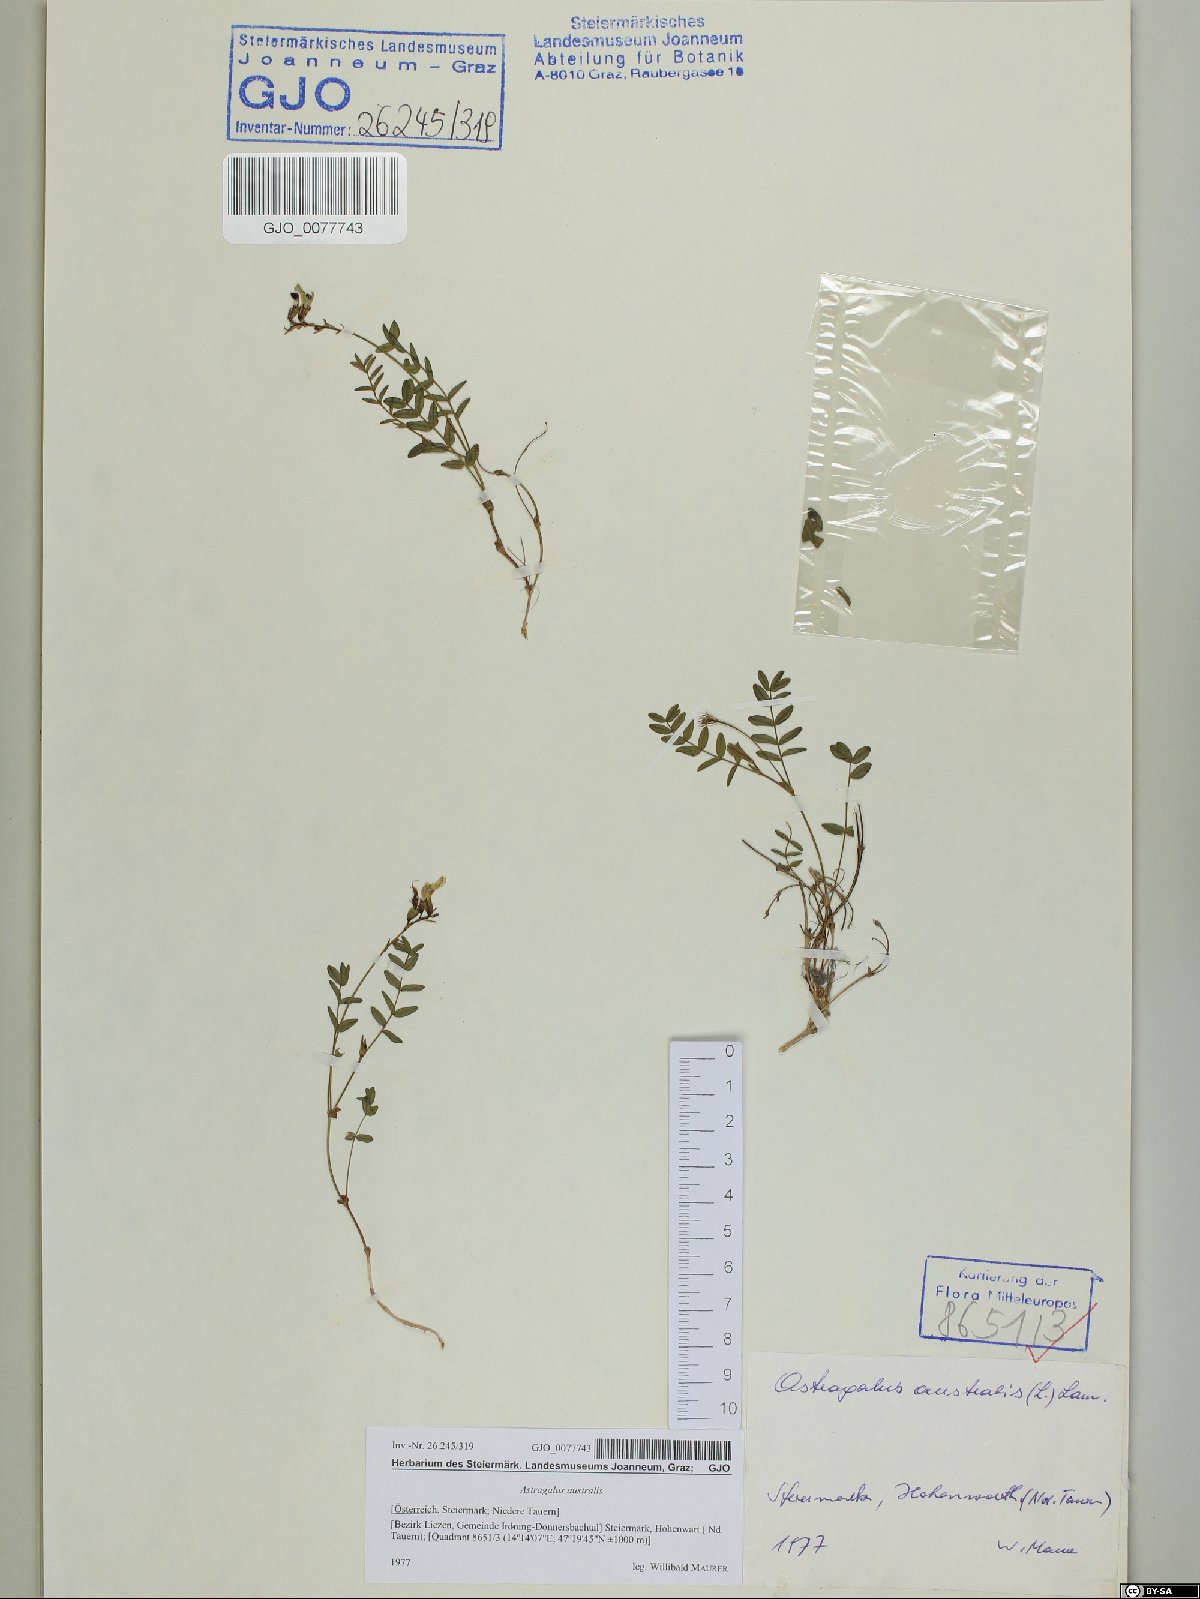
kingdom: Plantae
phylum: Tracheophyta
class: Magnoliopsida
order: Fabales
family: Fabaceae
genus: Astragalus
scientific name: Astragalus australis
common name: Indian milk-vetch
